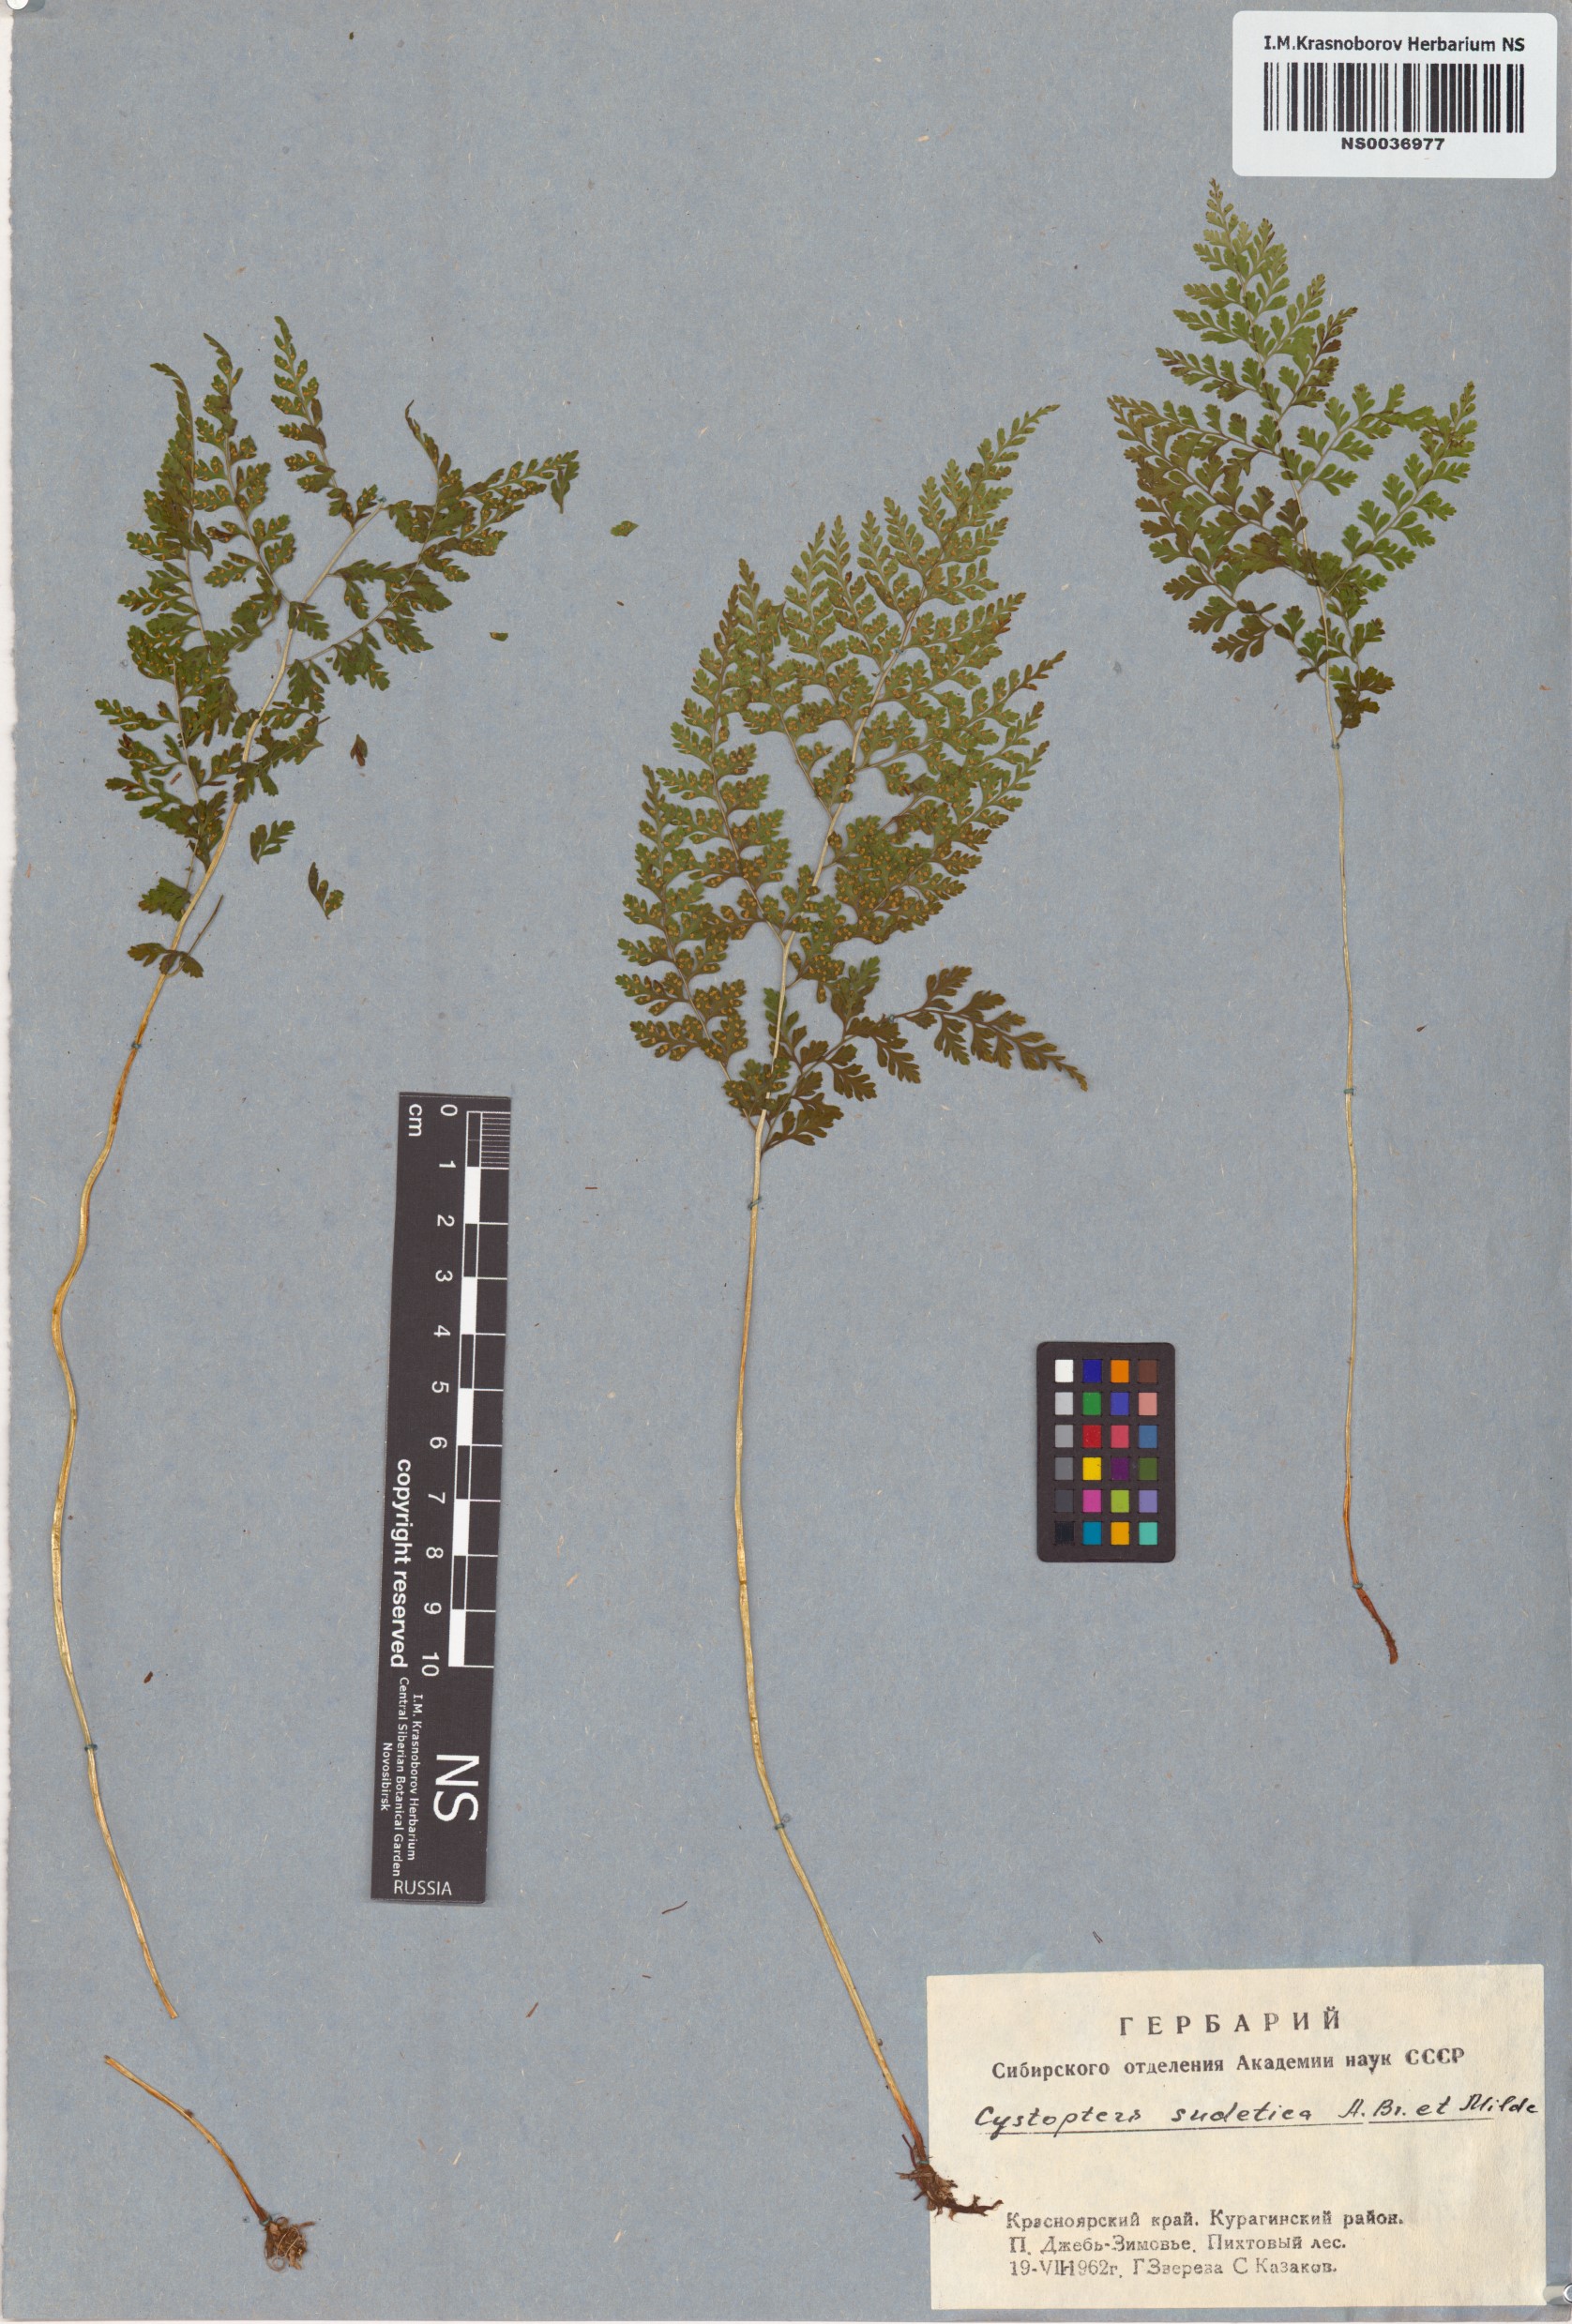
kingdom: Plantae
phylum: Tracheophyta
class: Polypodiopsida
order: Polypodiales
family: Cystopteridaceae
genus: Cystopteris
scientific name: Cystopteris sudetica
